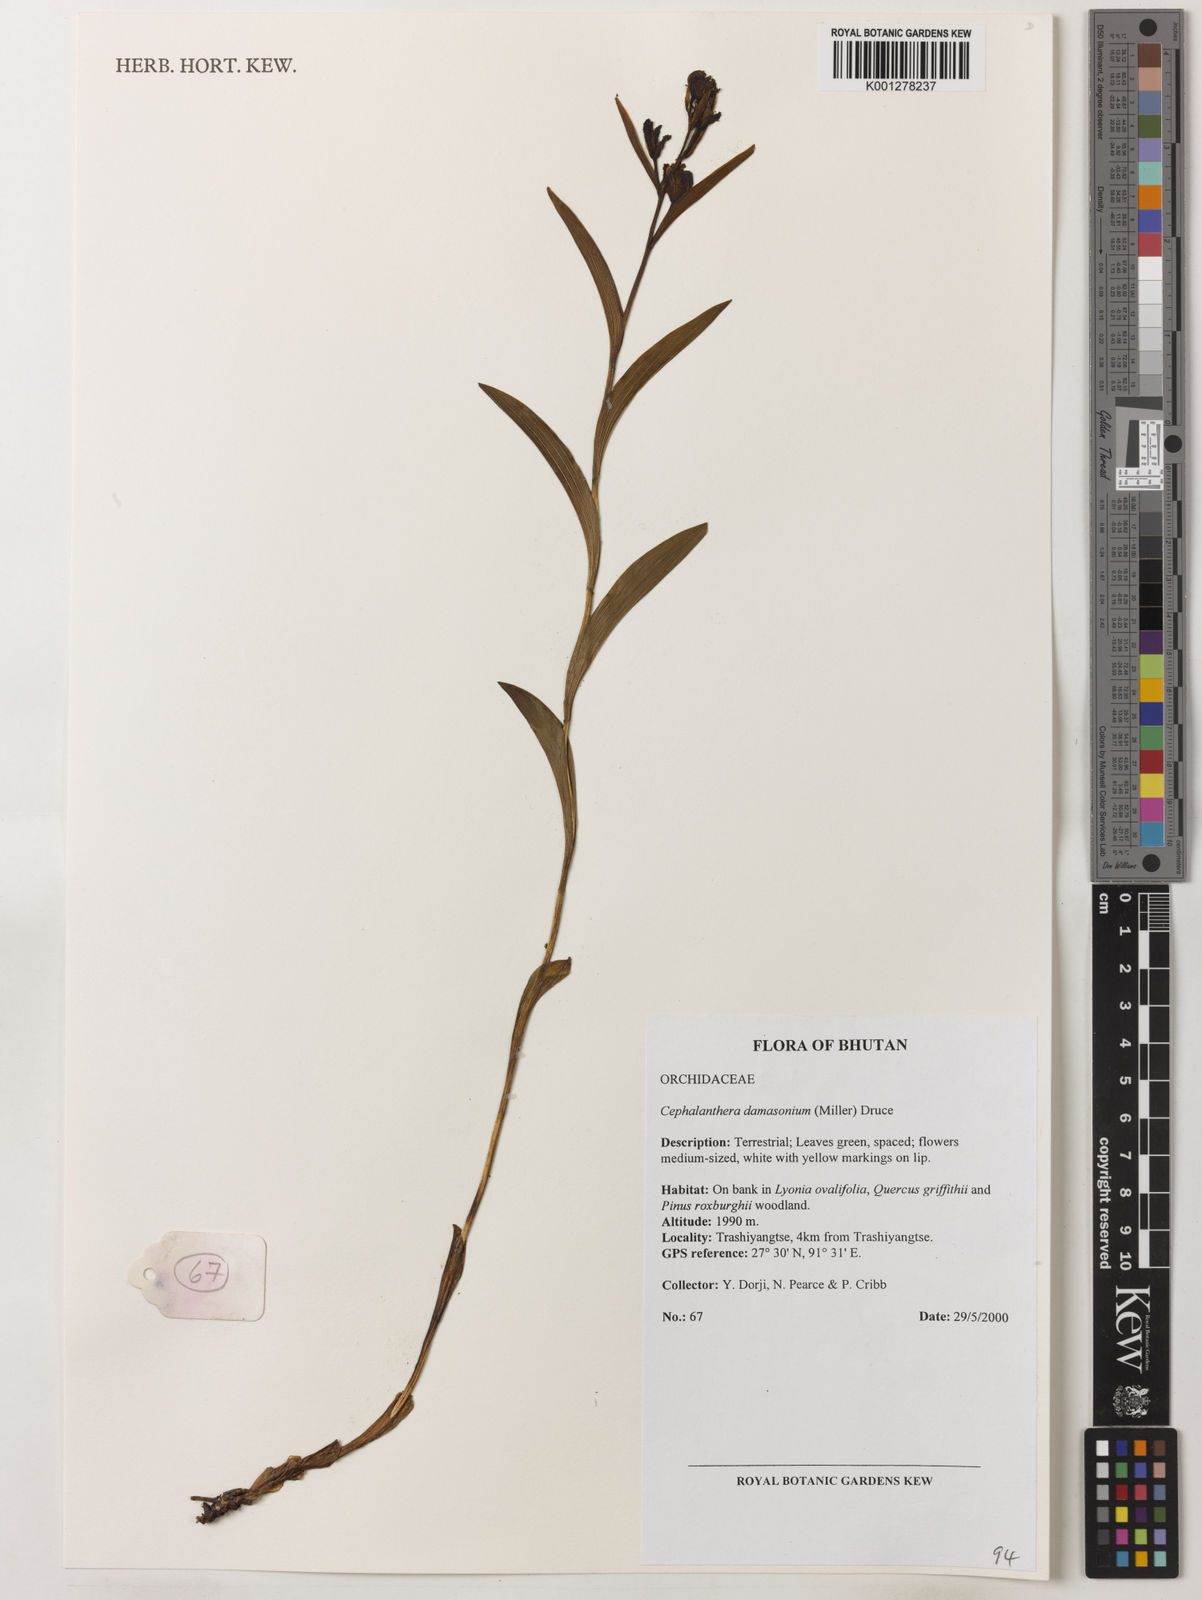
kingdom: Plantae
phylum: Tracheophyta
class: Liliopsida
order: Asparagales
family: Orchidaceae
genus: Cephalanthera
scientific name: Cephalanthera damasonium
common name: White helleborine
